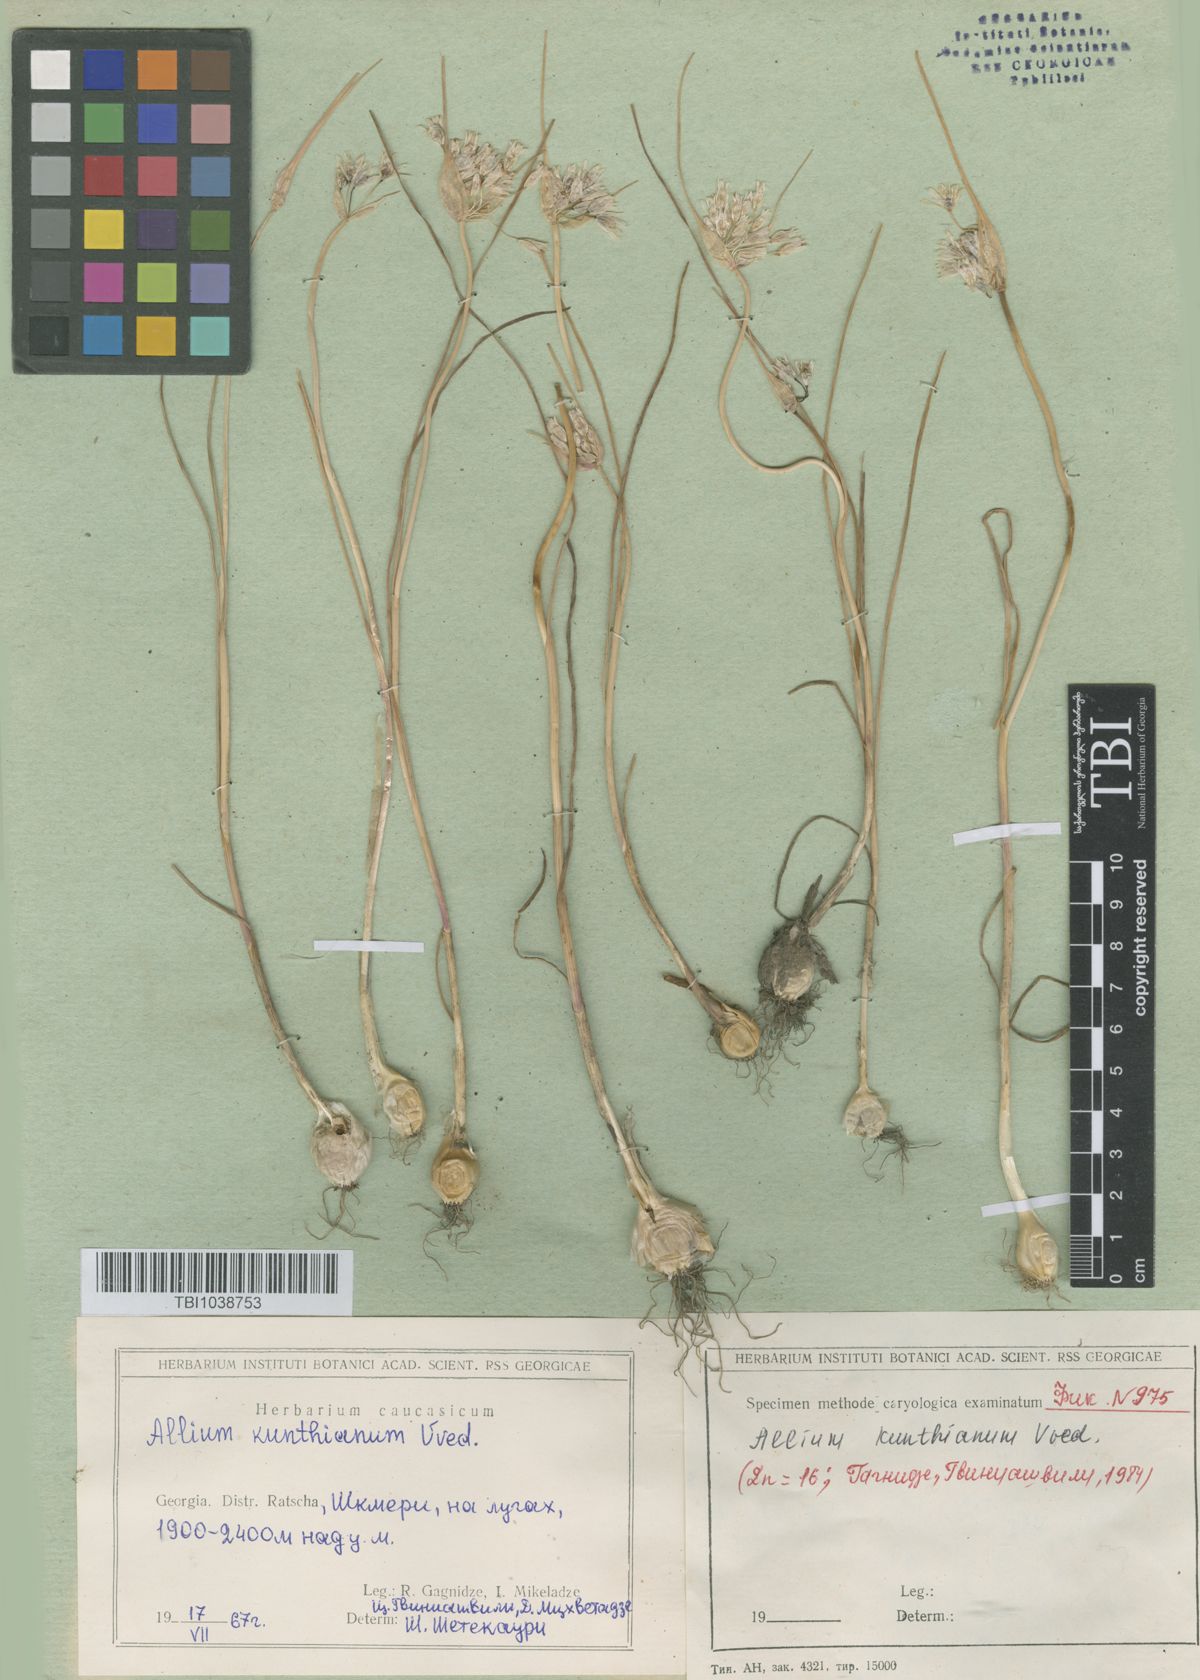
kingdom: Plantae
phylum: Tracheophyta
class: Liliopsida
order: Asparagales
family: Amaryllidaceae
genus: Allium
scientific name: Allium kunthianum
